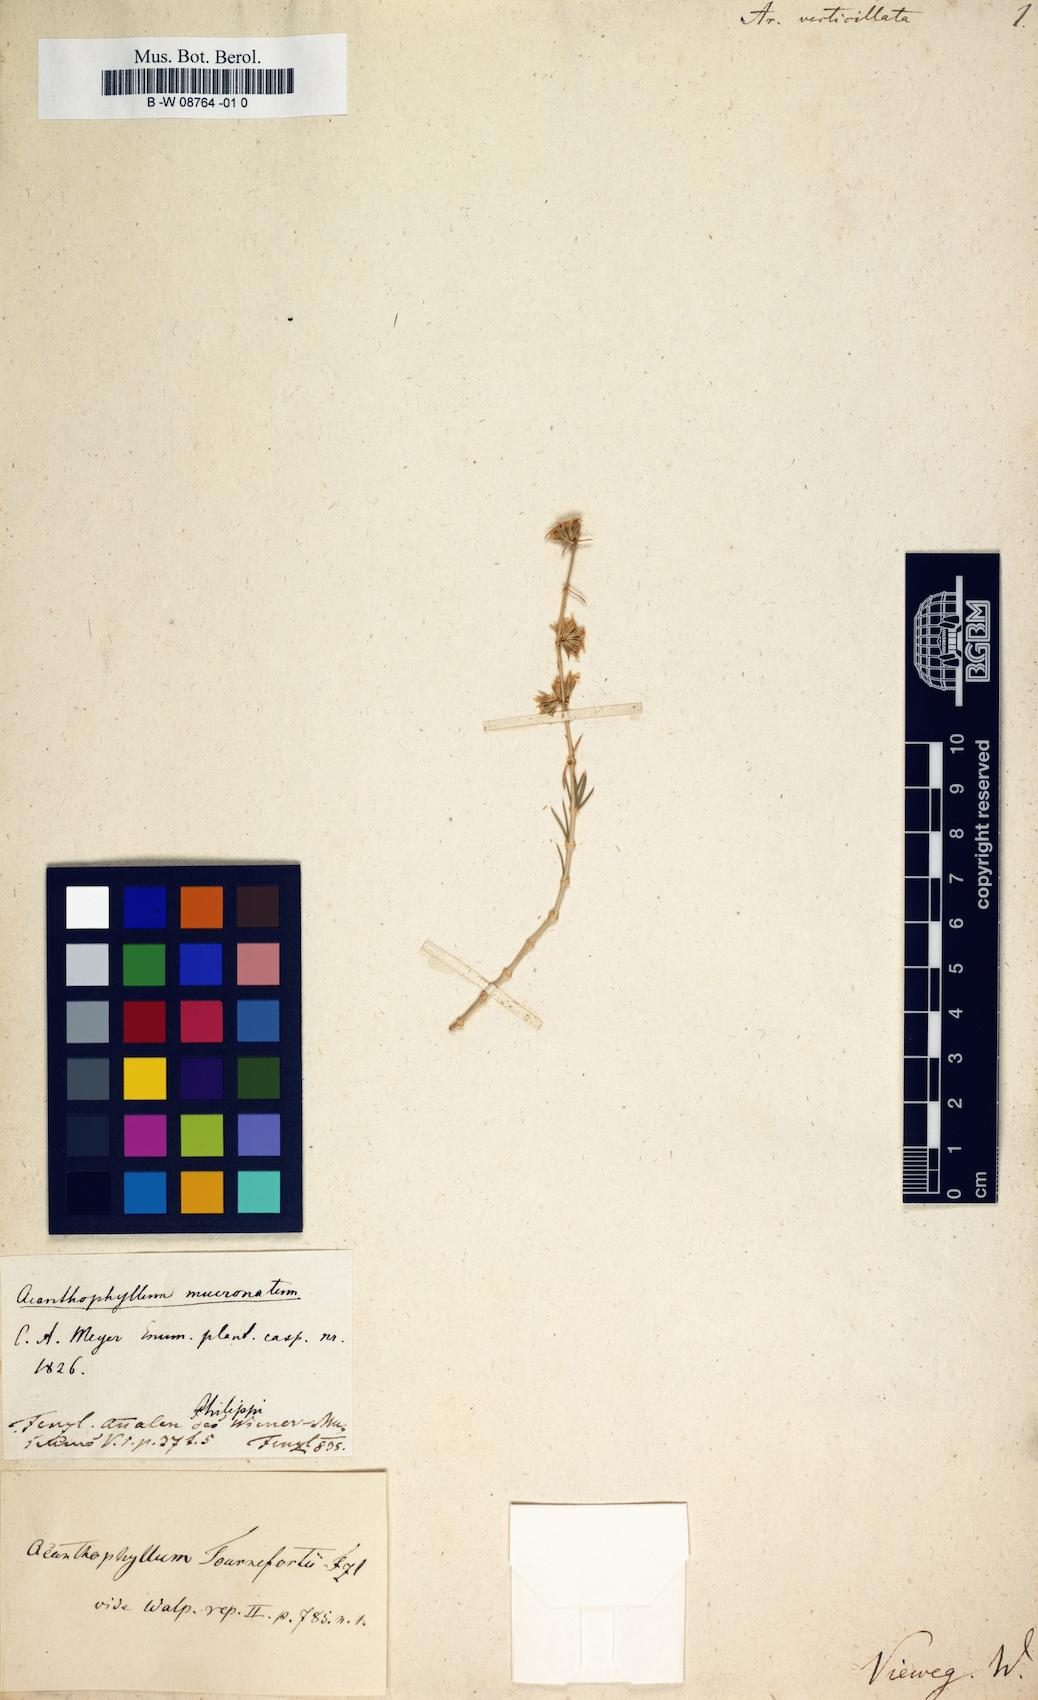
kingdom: Plantae
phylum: Tracheophyta
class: Magnoliopsida
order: Caryophyllales
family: Caryophyllaceae
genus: Acanthophyllum
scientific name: Acanthophyllum verticillatum
